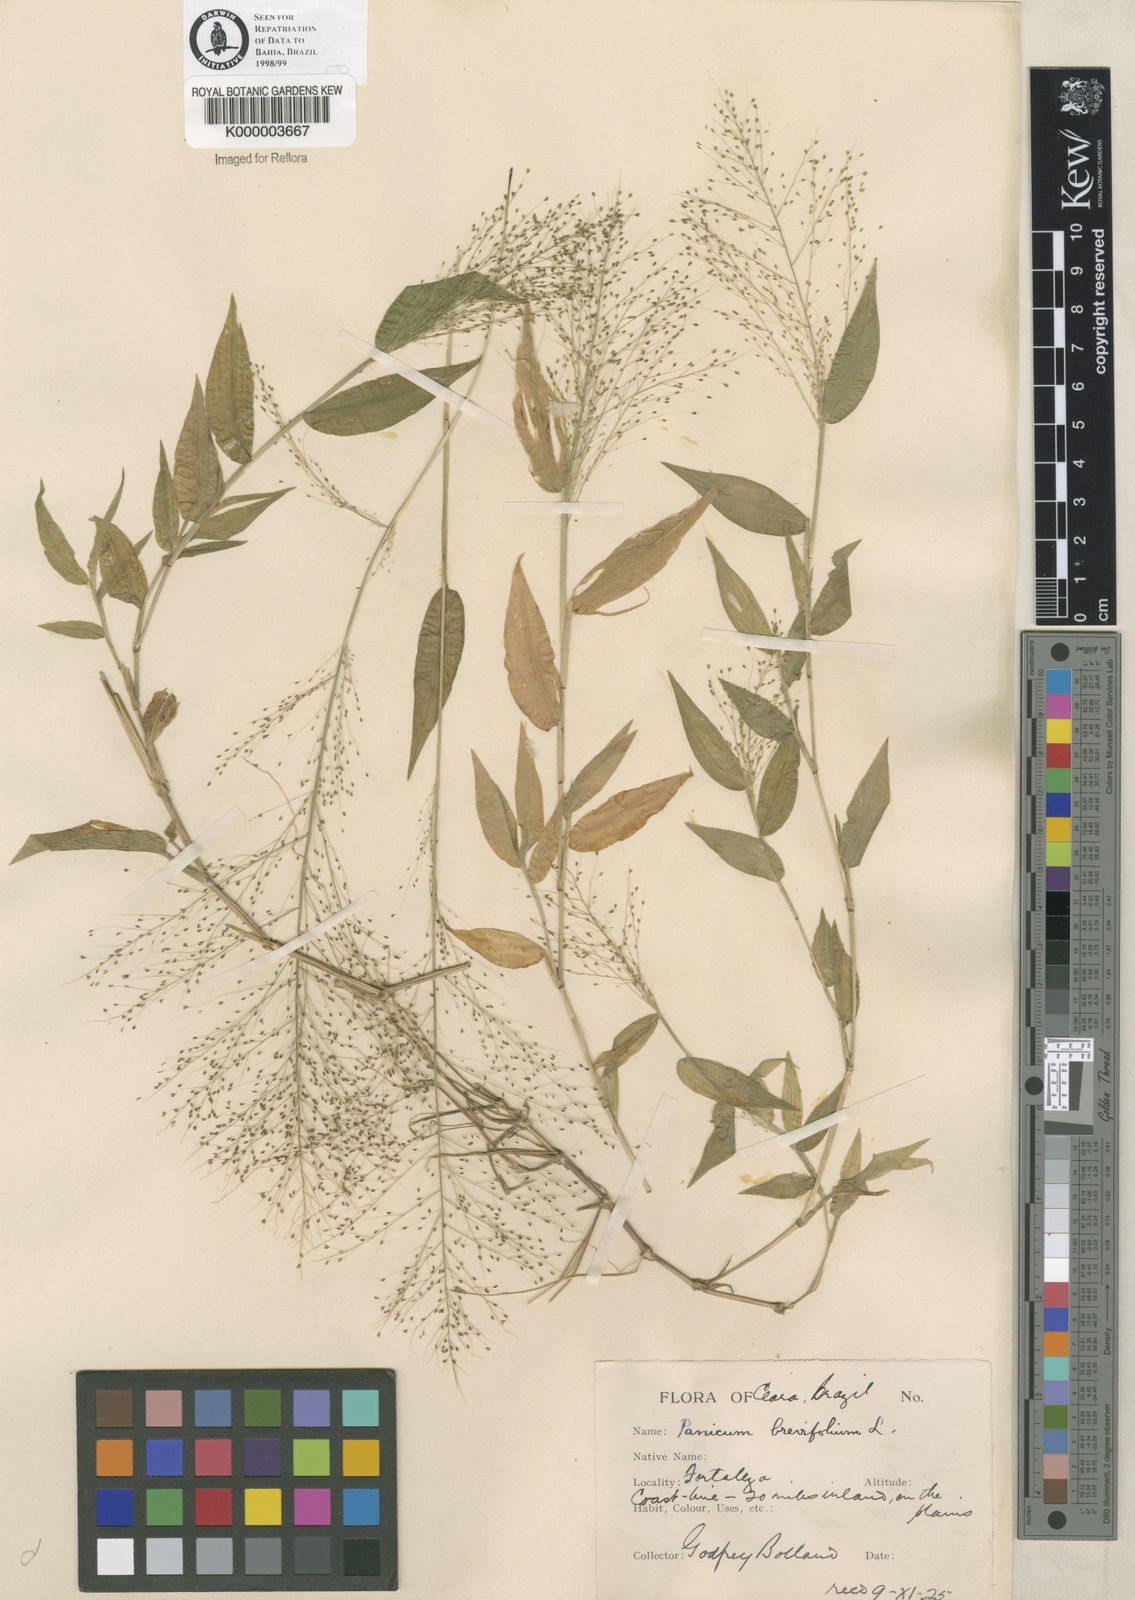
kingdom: Plantae
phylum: Tracheophyta
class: Liliopsida
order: Poales
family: Poaceae
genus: Panicum
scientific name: Panicum
